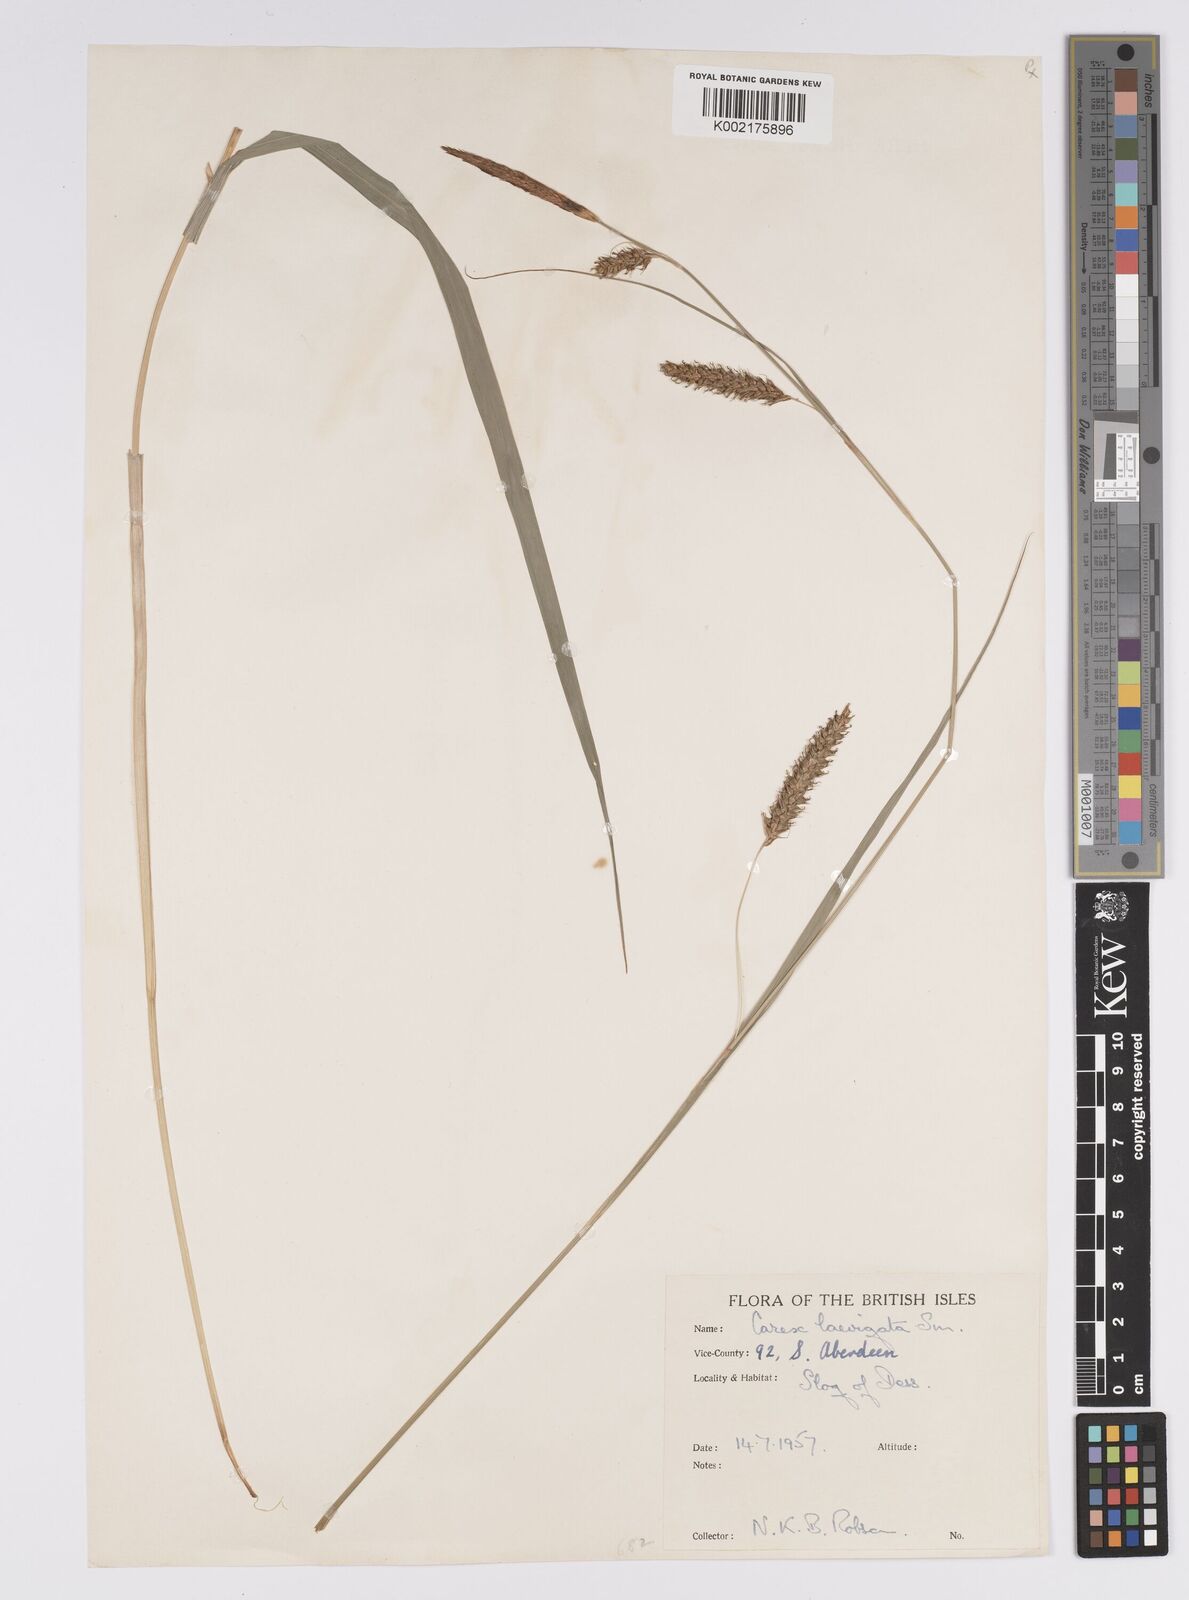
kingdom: Plantae
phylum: Tracheophyta
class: Liliopsida
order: Poales
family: Cyperaceae
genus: Carex
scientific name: Carex laevigata
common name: Smooth-stalked sedge
